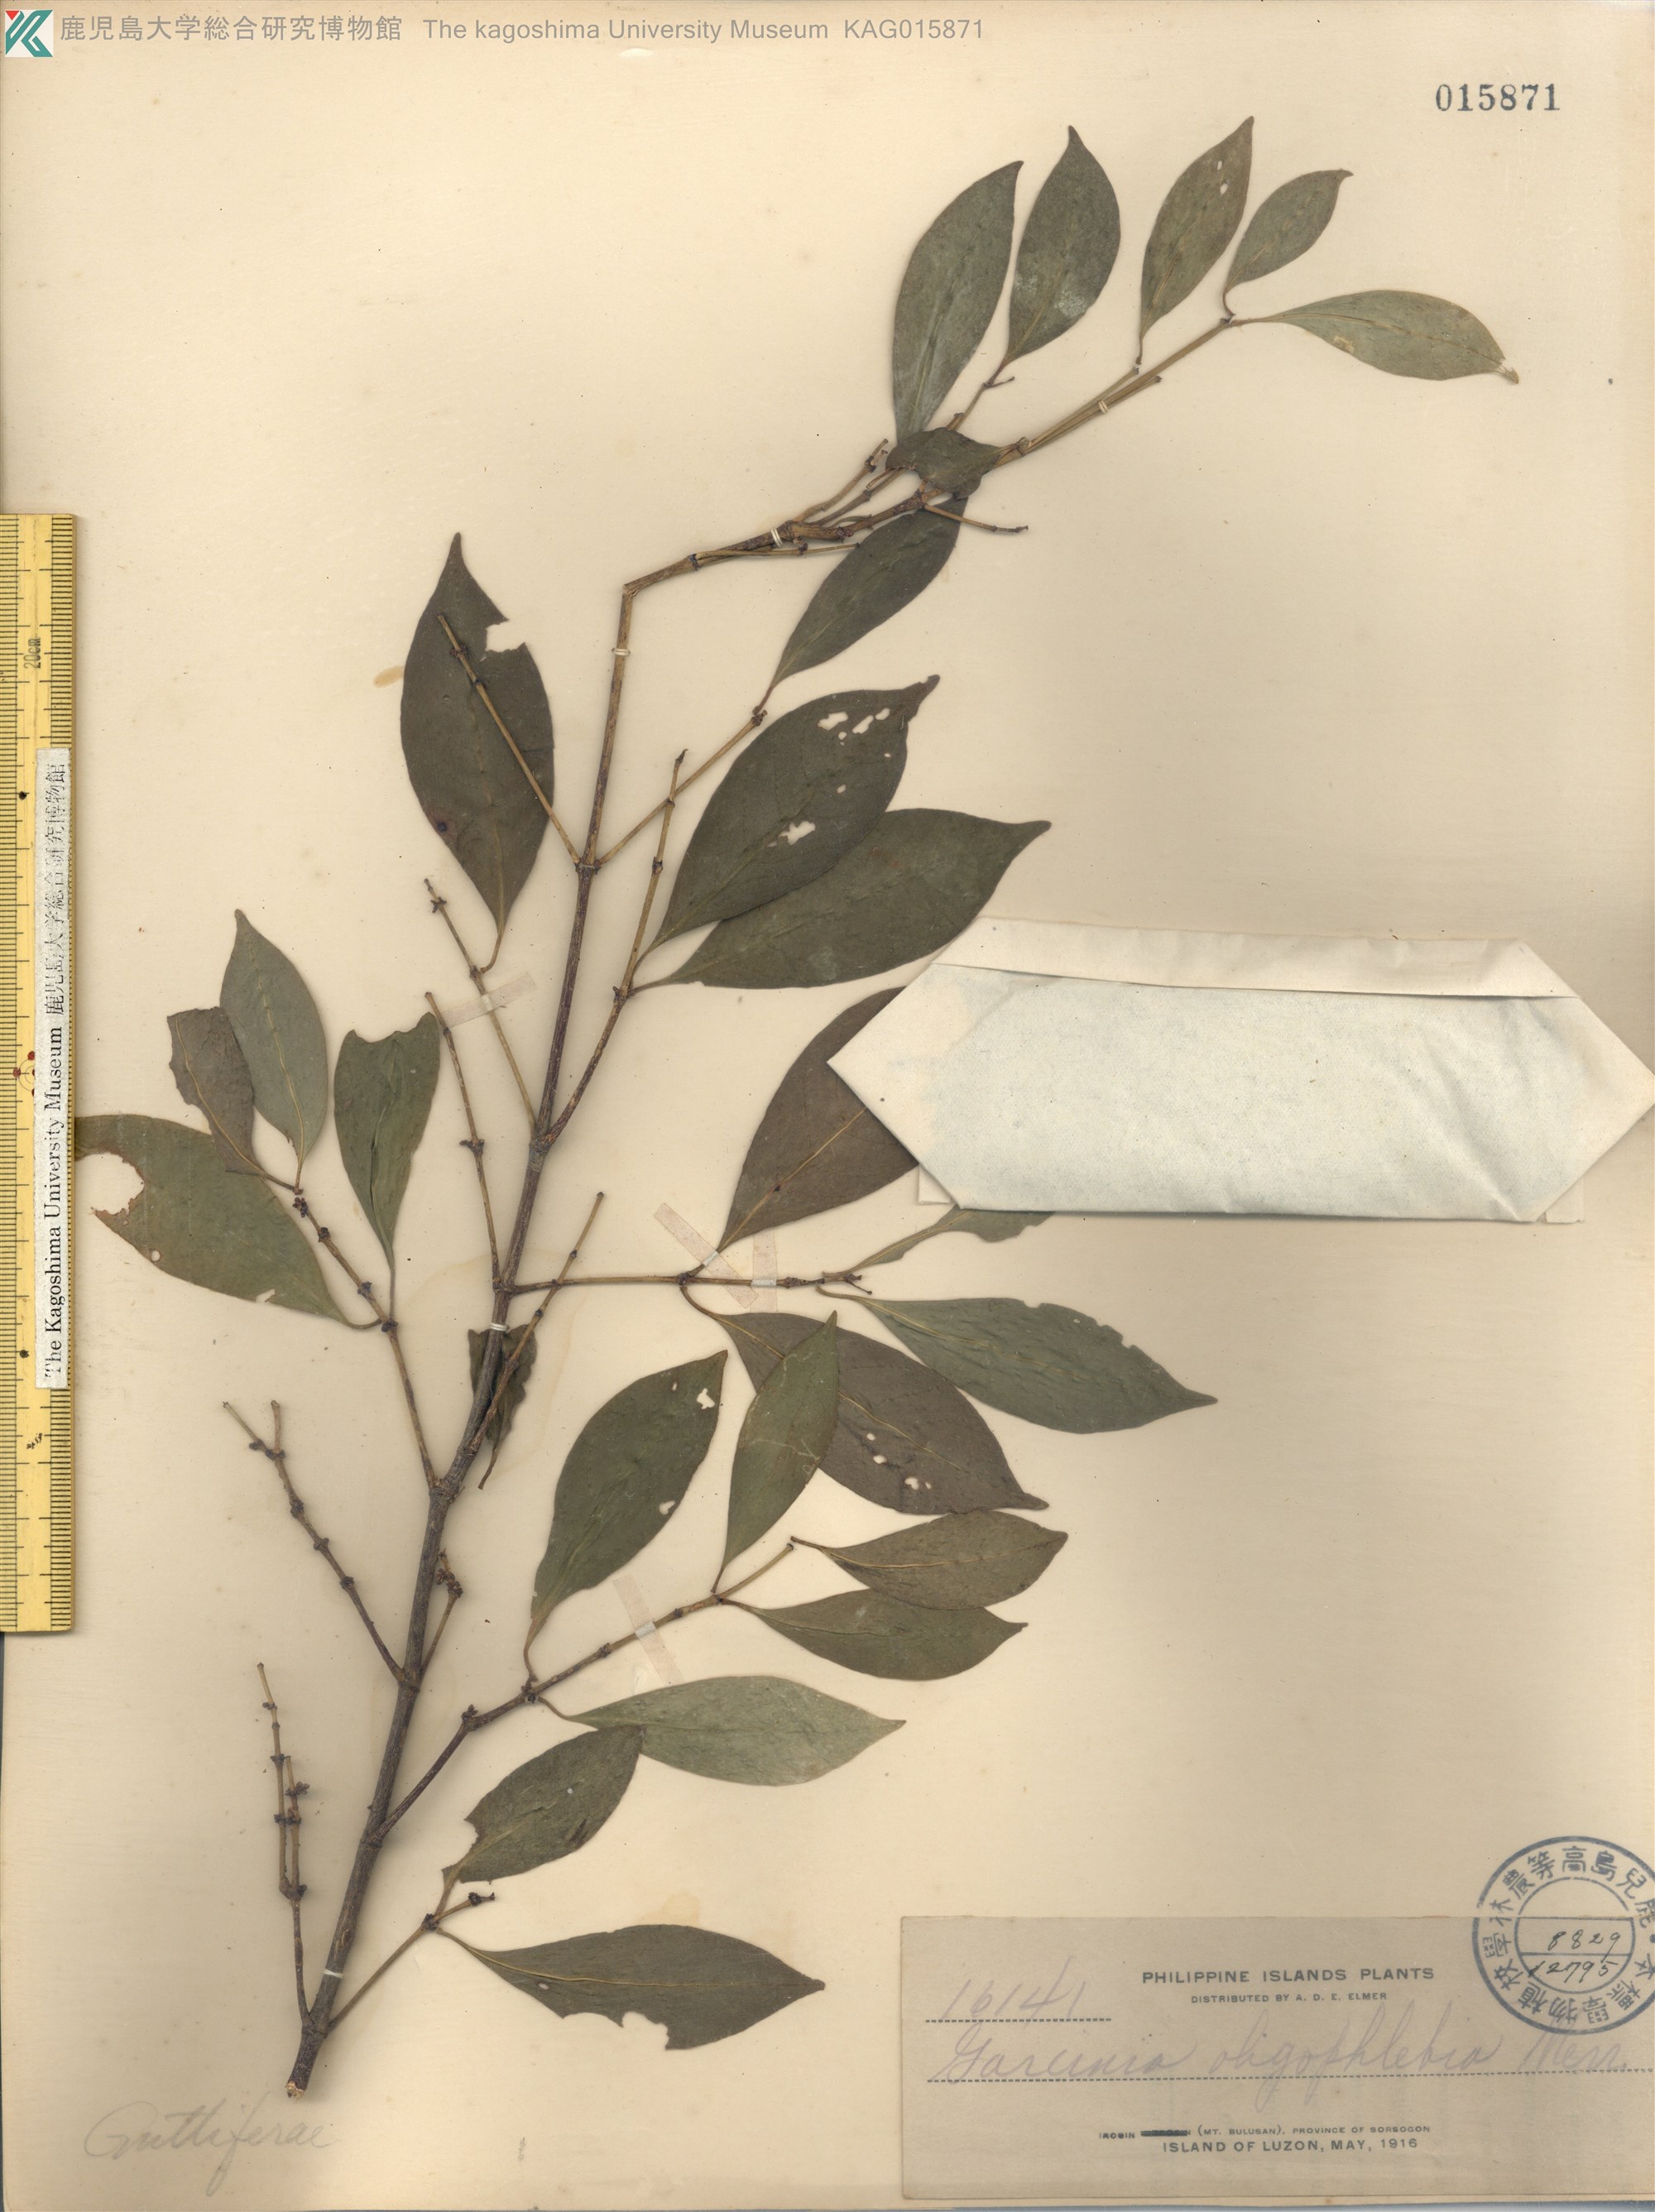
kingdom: Plantae
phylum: Tracheophyta
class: Magnoliopsida
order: Malpighiales
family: Clusiaceae
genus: Garcinia
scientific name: Garcinia rubra
